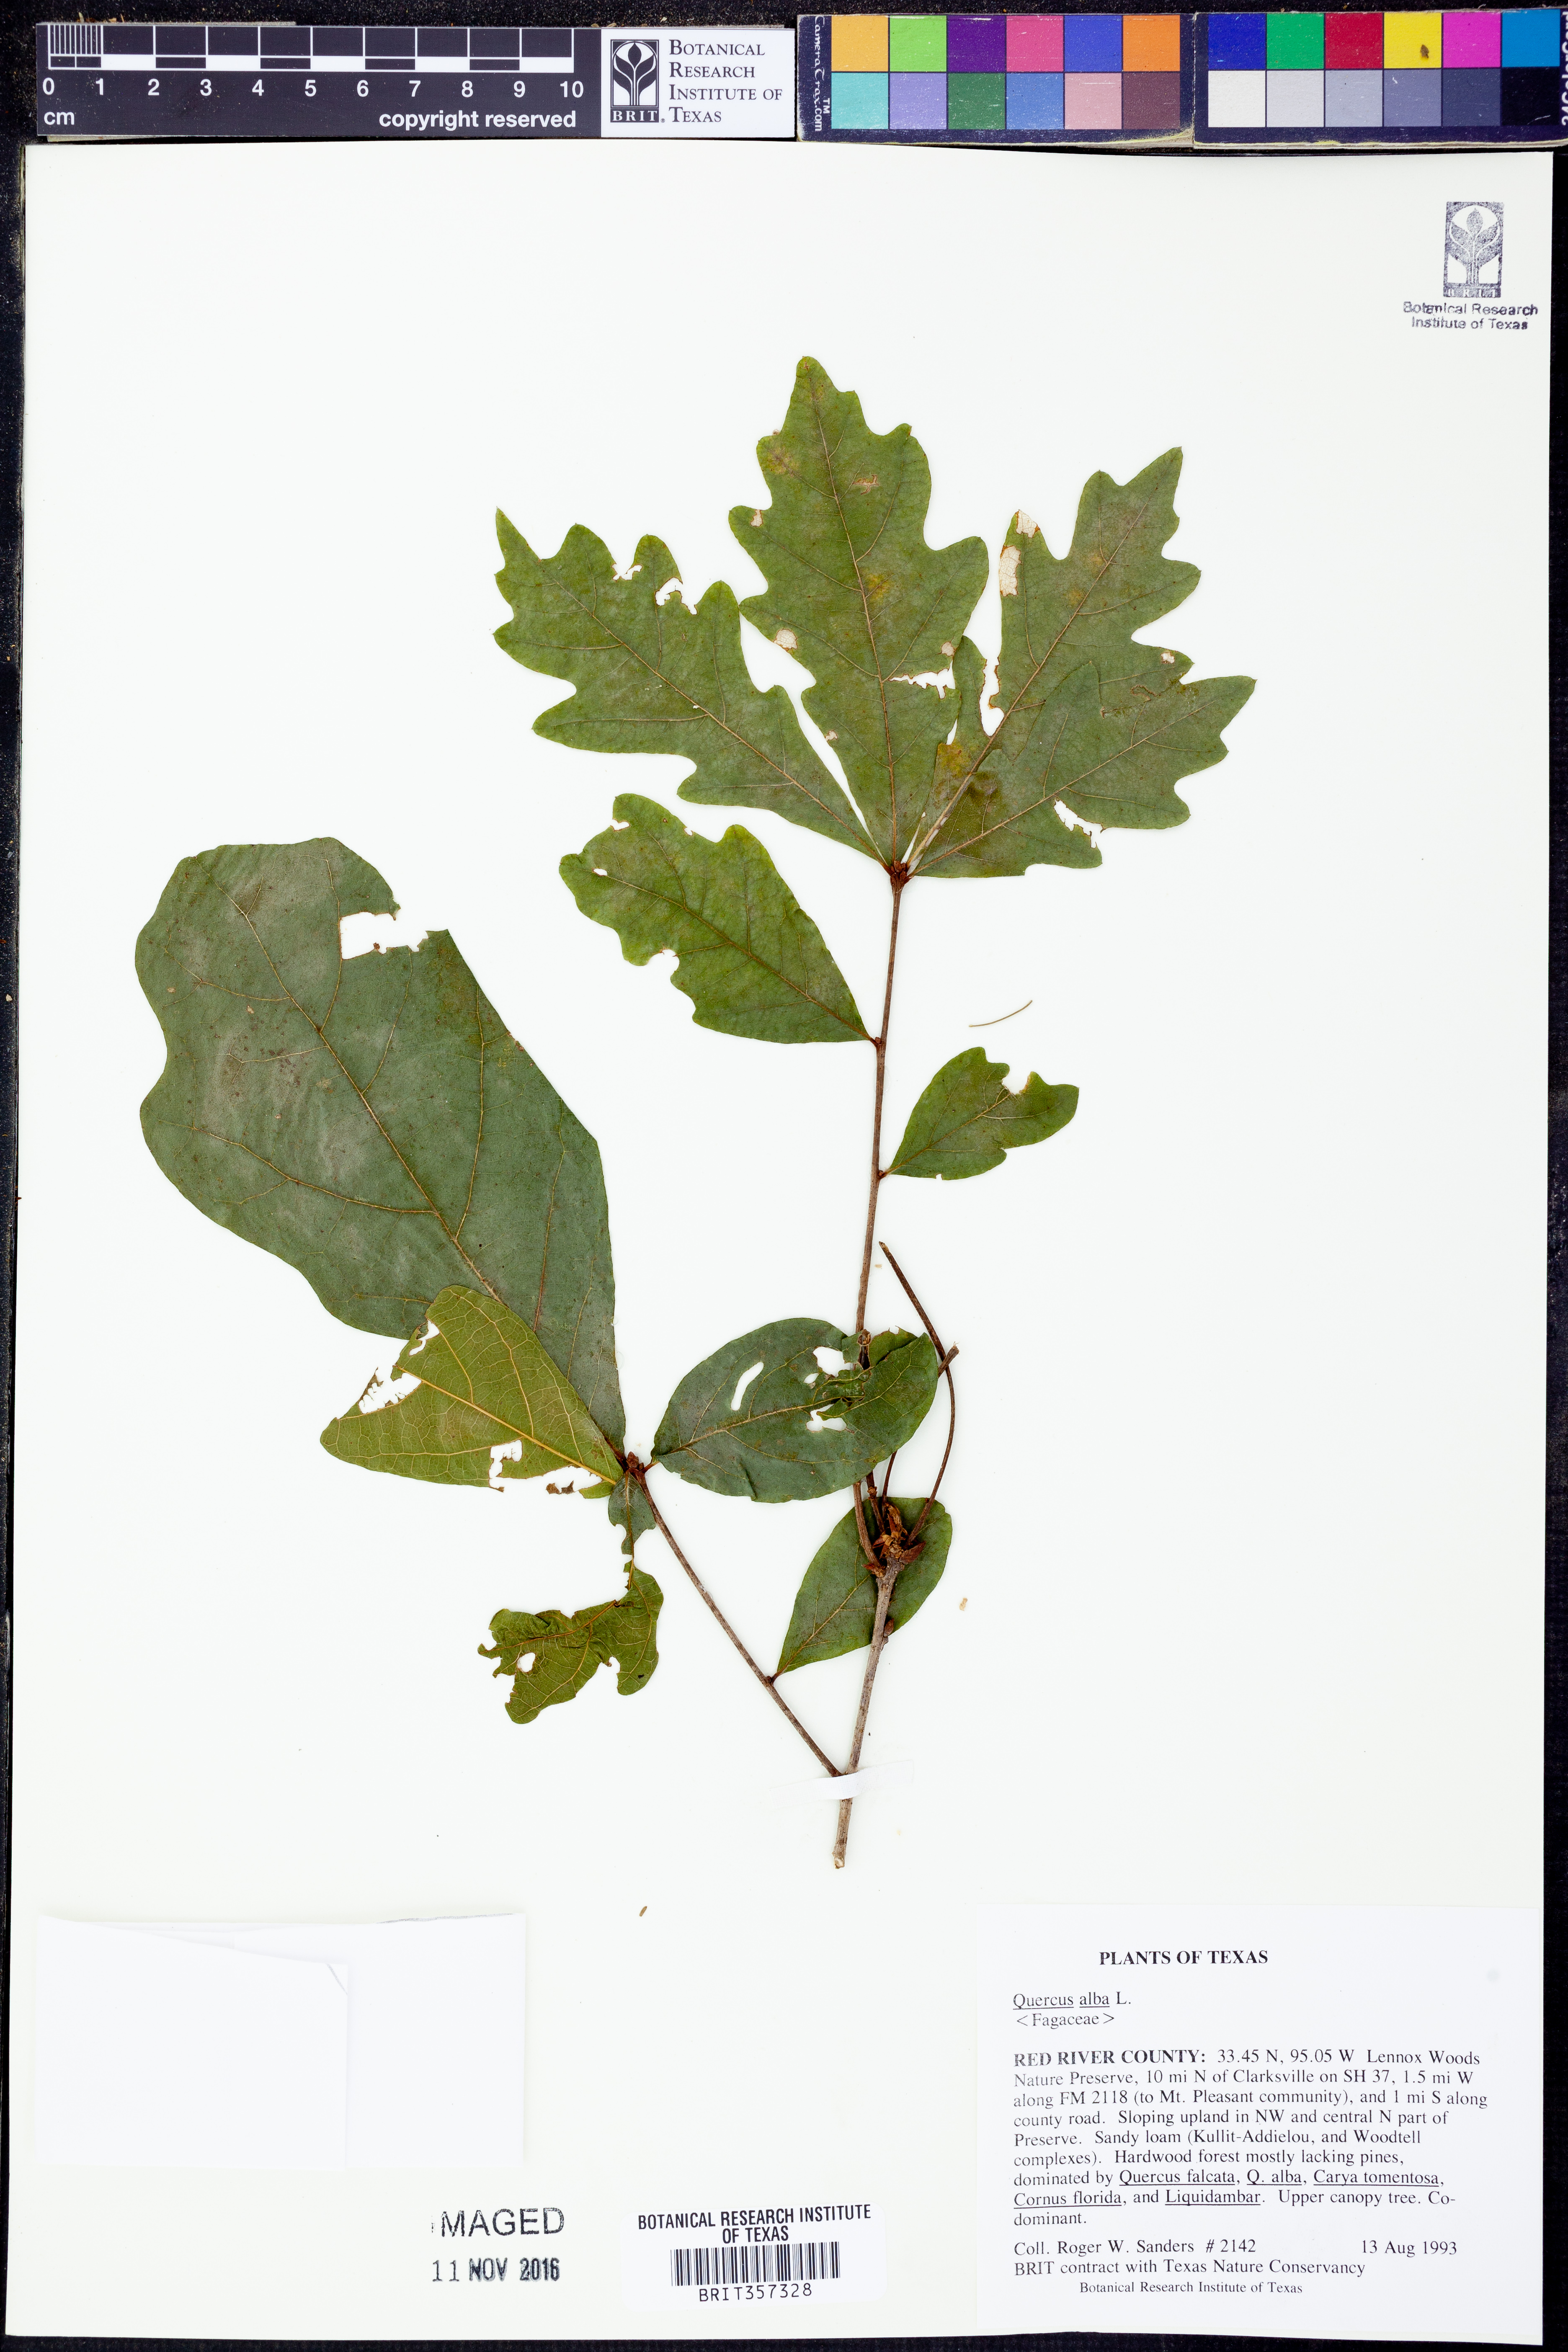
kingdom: Plantae
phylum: Tracheophyta
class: Magnoliopsida
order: Fagales
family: Fagaceae
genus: Quercus
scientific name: Quercus alba
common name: White oak
